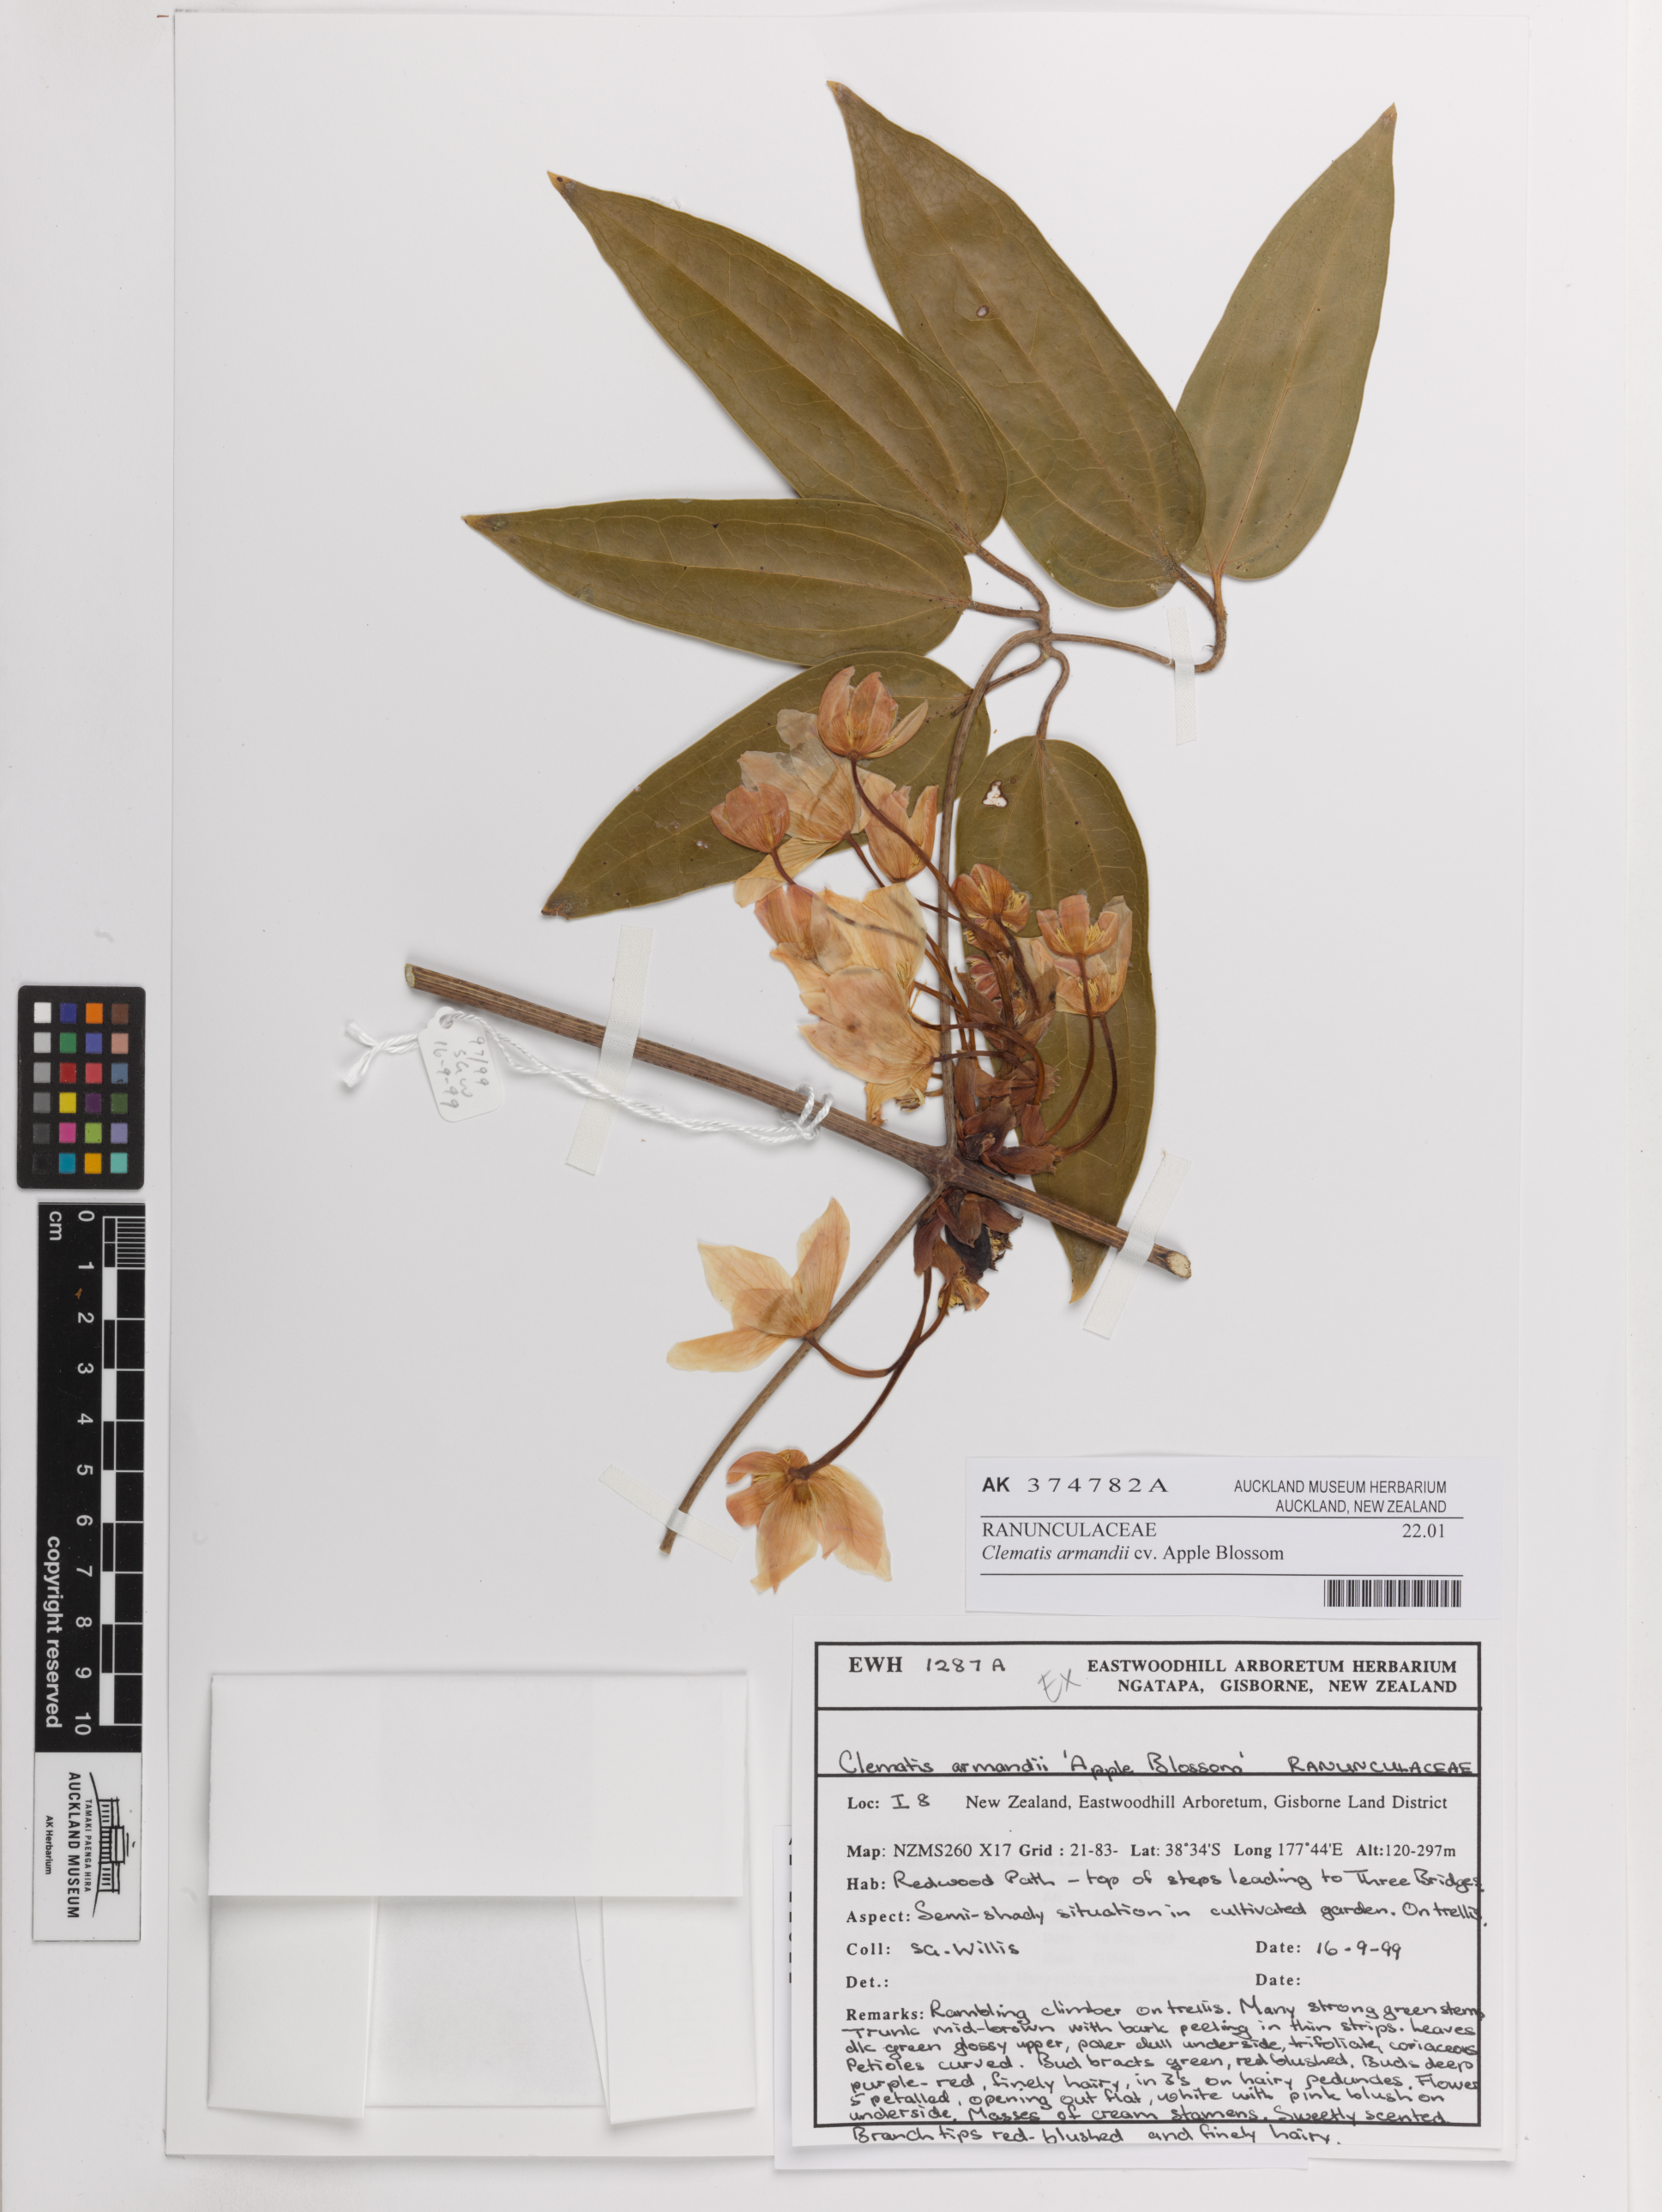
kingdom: Plantae
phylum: Tracheophyta
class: Magnoliopsida
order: Ranunculales
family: Ranunculaceae
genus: Clematis
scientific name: Clematis armandii
